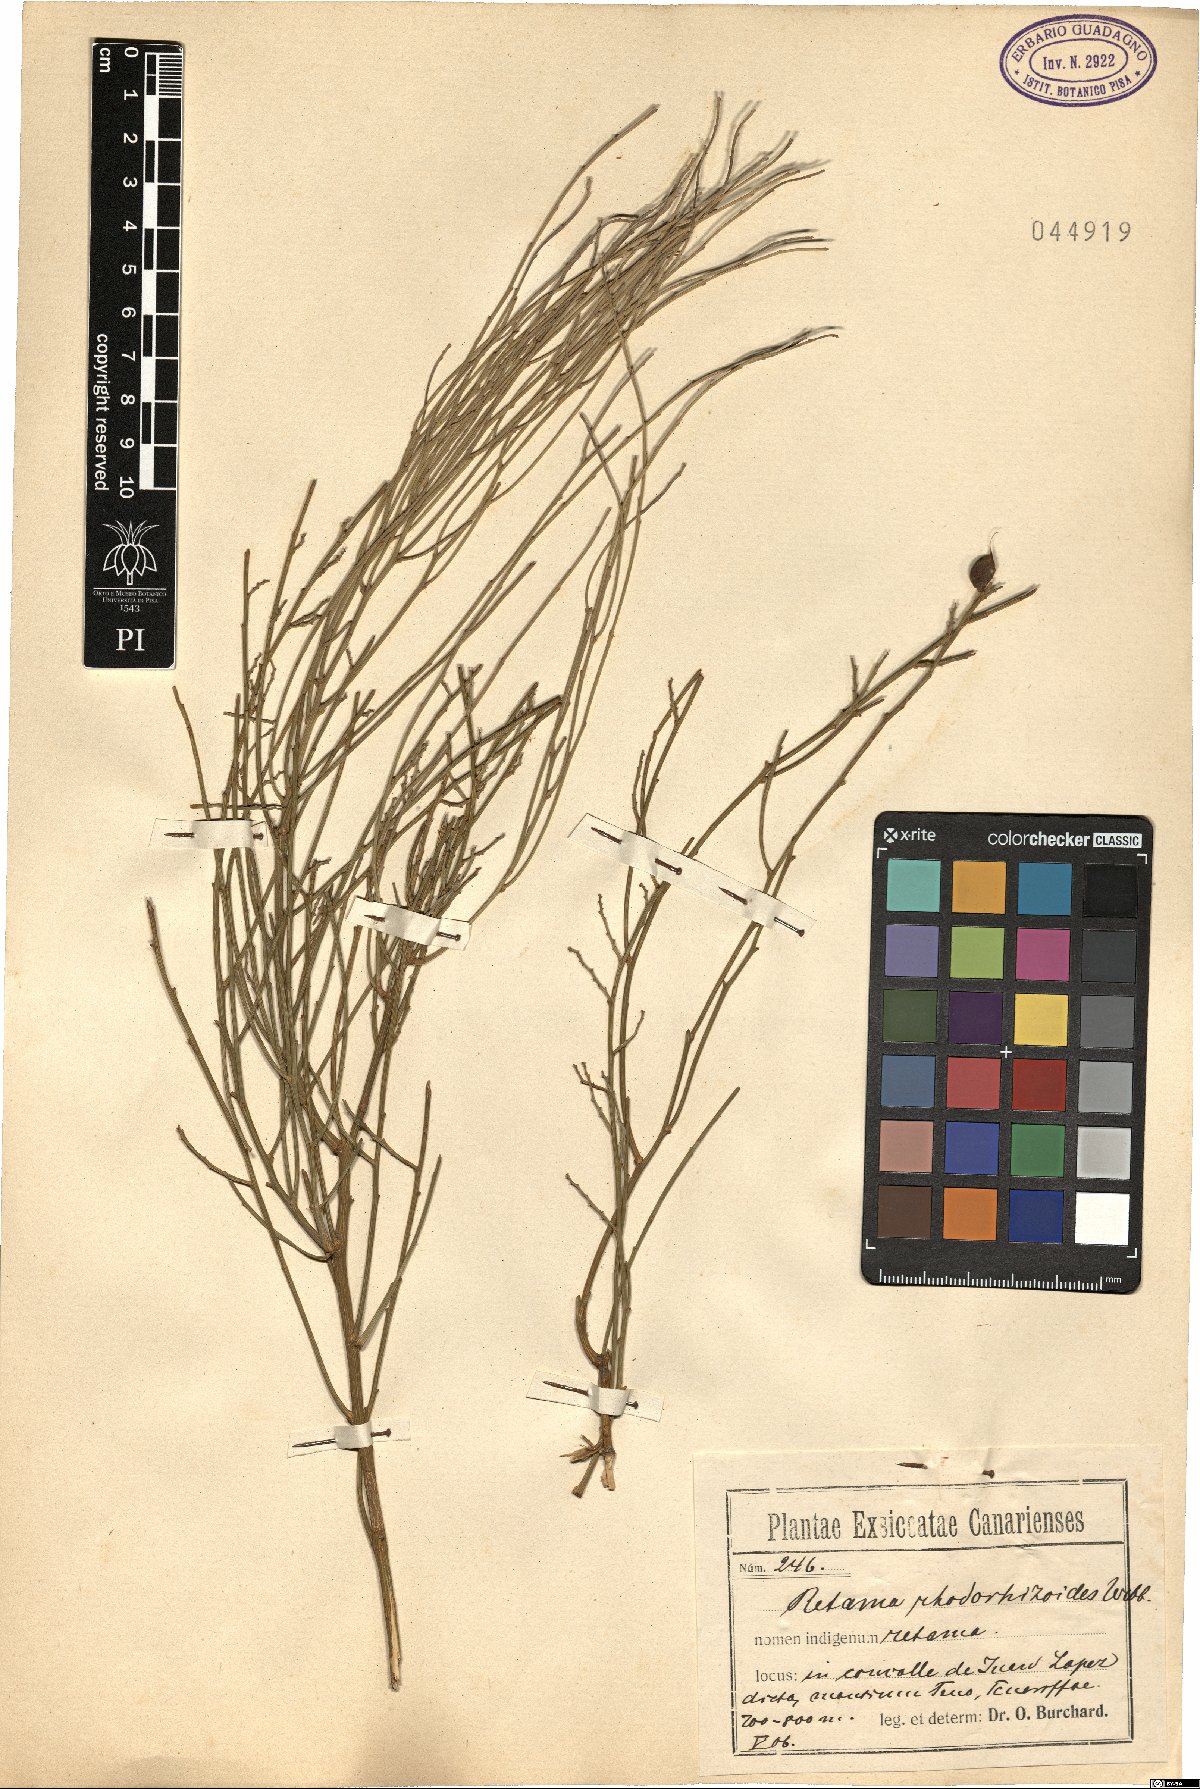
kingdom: Plantae
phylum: Tracheophyta
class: Magnoliopsida
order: Fabales
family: Fabaceae
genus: Retama
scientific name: Retama rhodorhizoides
